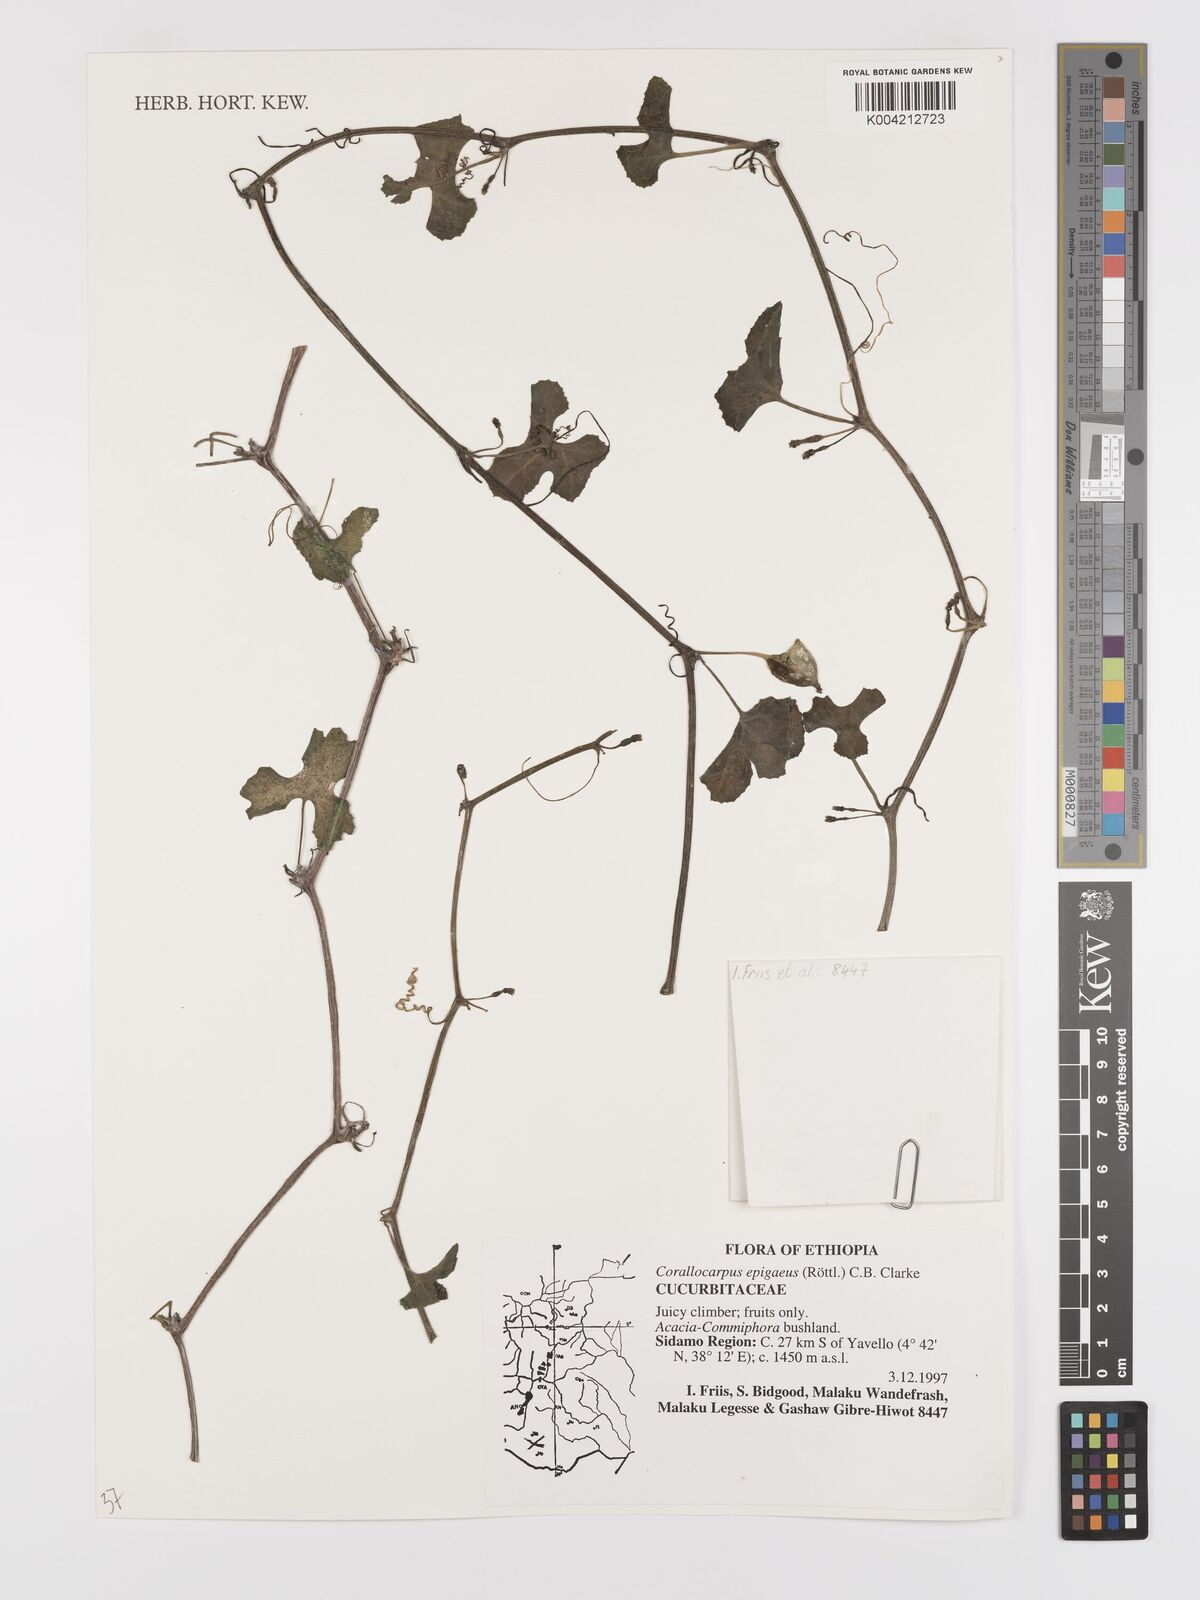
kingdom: Plantae
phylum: Tracheophyta
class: Magnoliopsida
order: Cucurbitales
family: Cucurbitaceae
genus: Corallocarpus
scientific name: Corallocarpus epigaeus
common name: Indian bryonia
